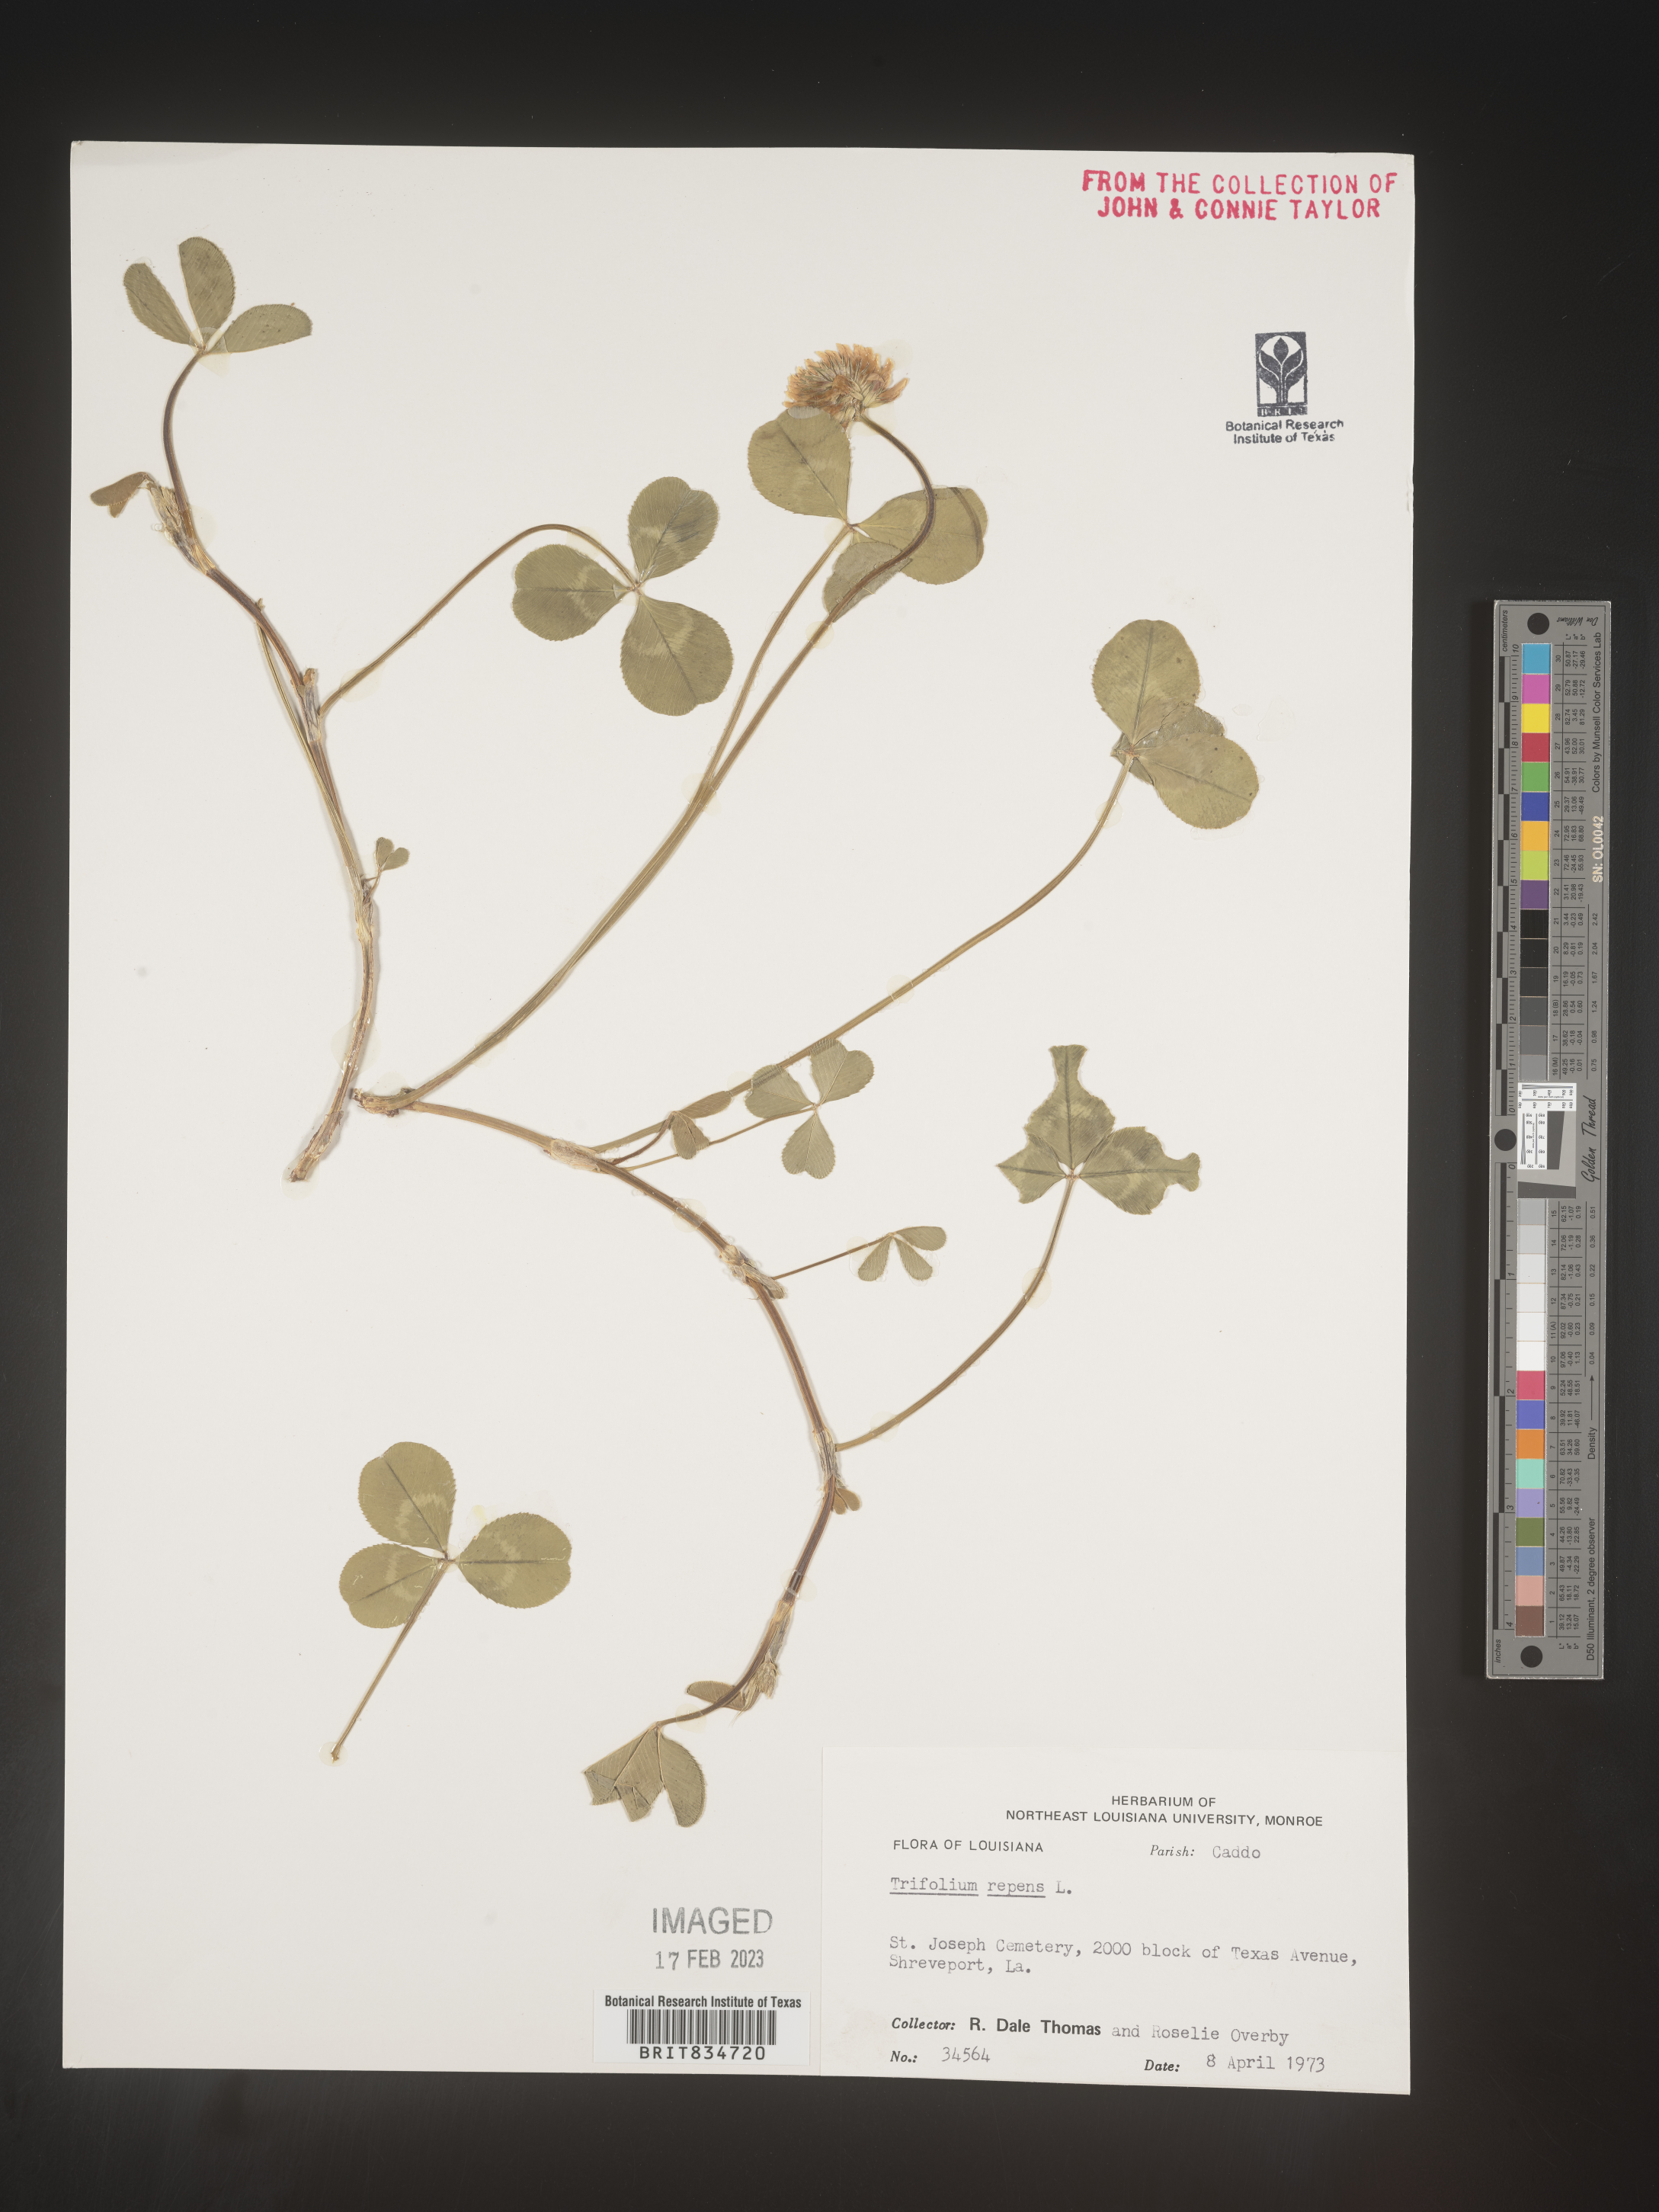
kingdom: Plantae
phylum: Tracheophyta
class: Magnoliopsida
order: Fabales
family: Fabaceae
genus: Trifolium
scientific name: Trifolium repens
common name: White clover
